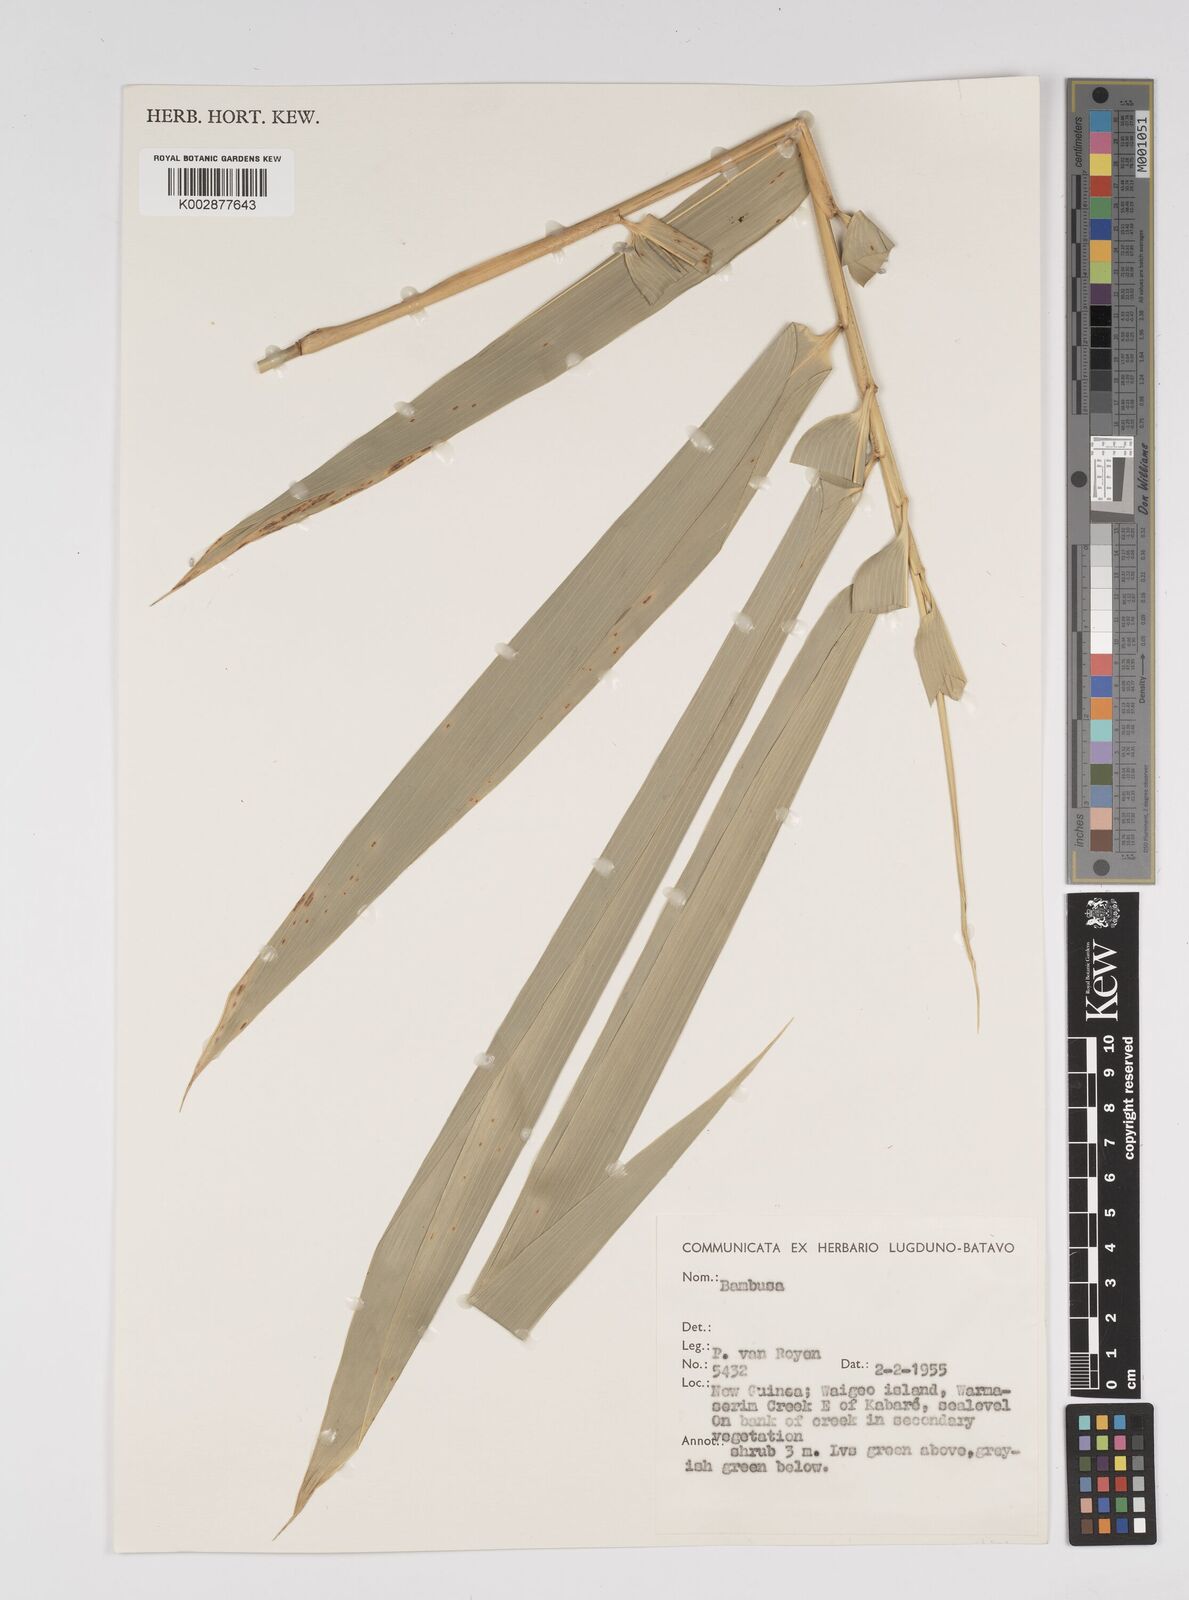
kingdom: Plantae
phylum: Tracheophyta
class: Liliopsida
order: Poales
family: Poaceae
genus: Bambusa
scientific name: Bambusa
